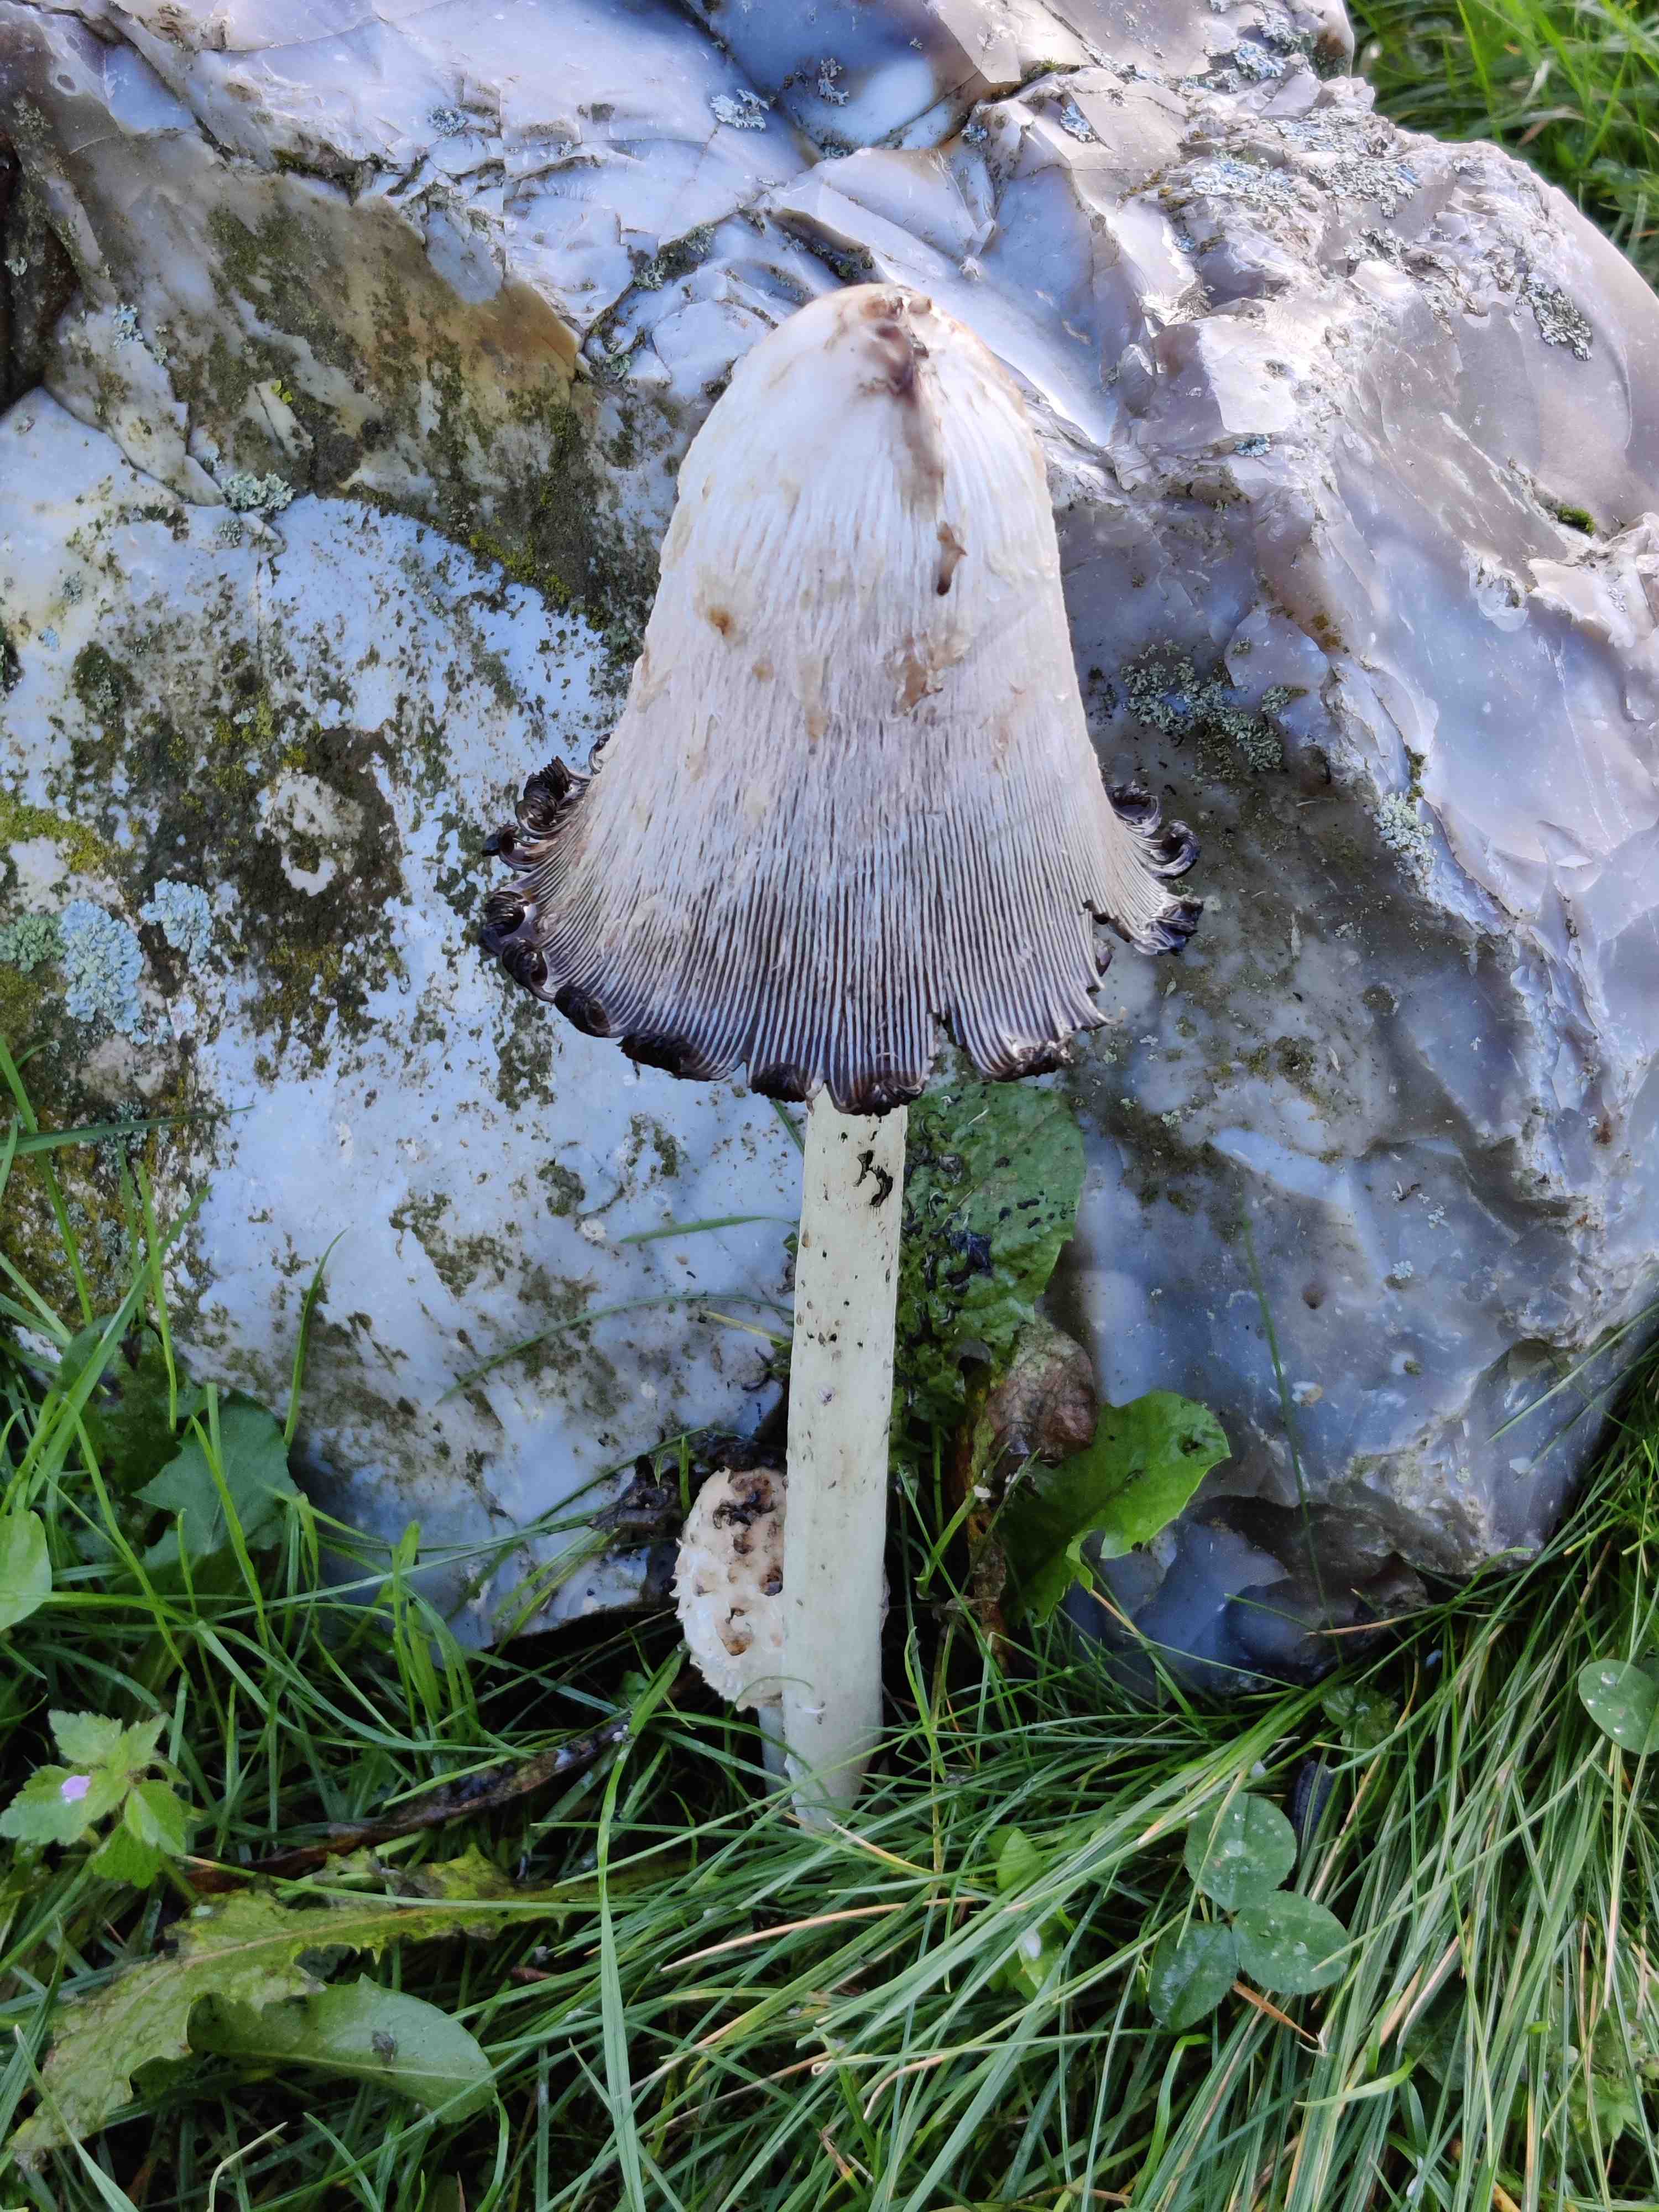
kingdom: Fungi
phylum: Basidiomycota
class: Agaricomycetes
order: Agaricales
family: Agaricaceae
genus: Coprinus
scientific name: Coprinus comatus
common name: stor parykhat
